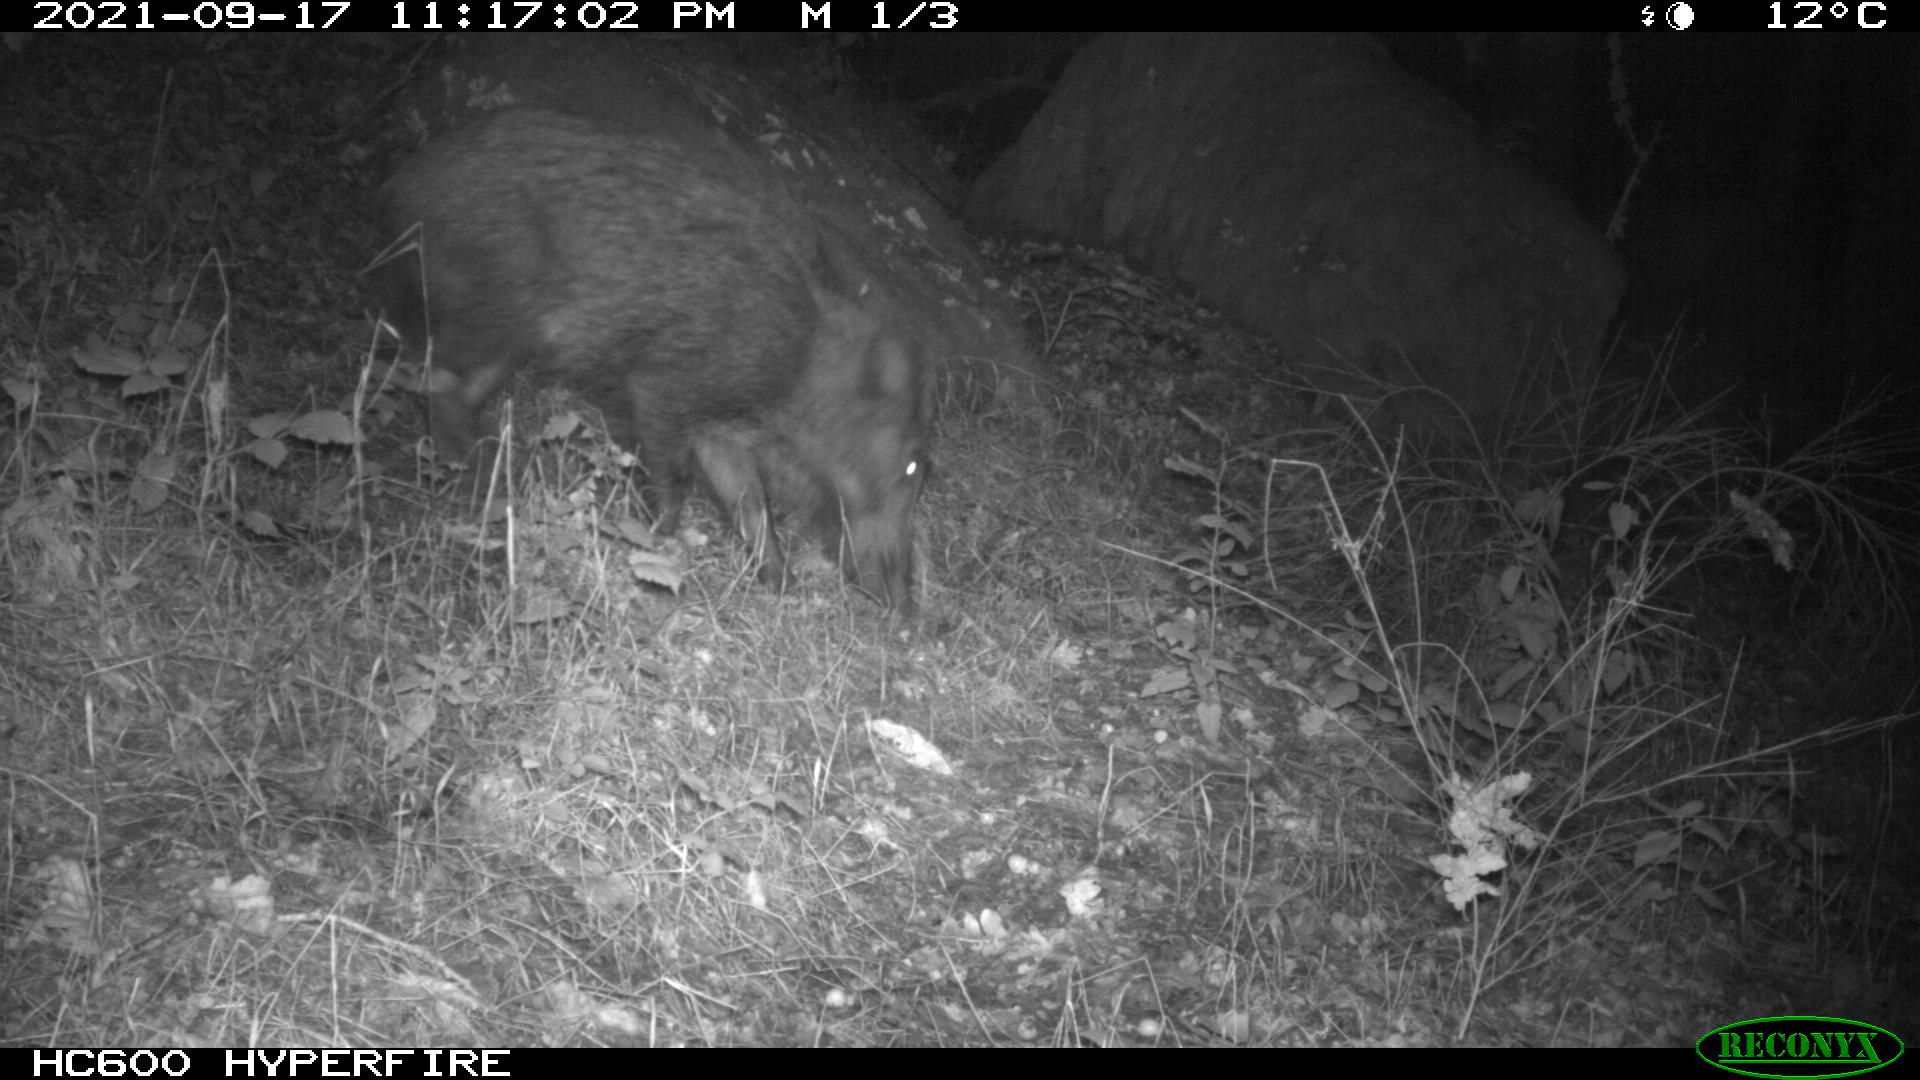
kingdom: Animalia
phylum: Chordata
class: Mammalia
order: Artiodactyla
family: Suidae
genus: Sus
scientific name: Sus scrofa
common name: Wild boar
